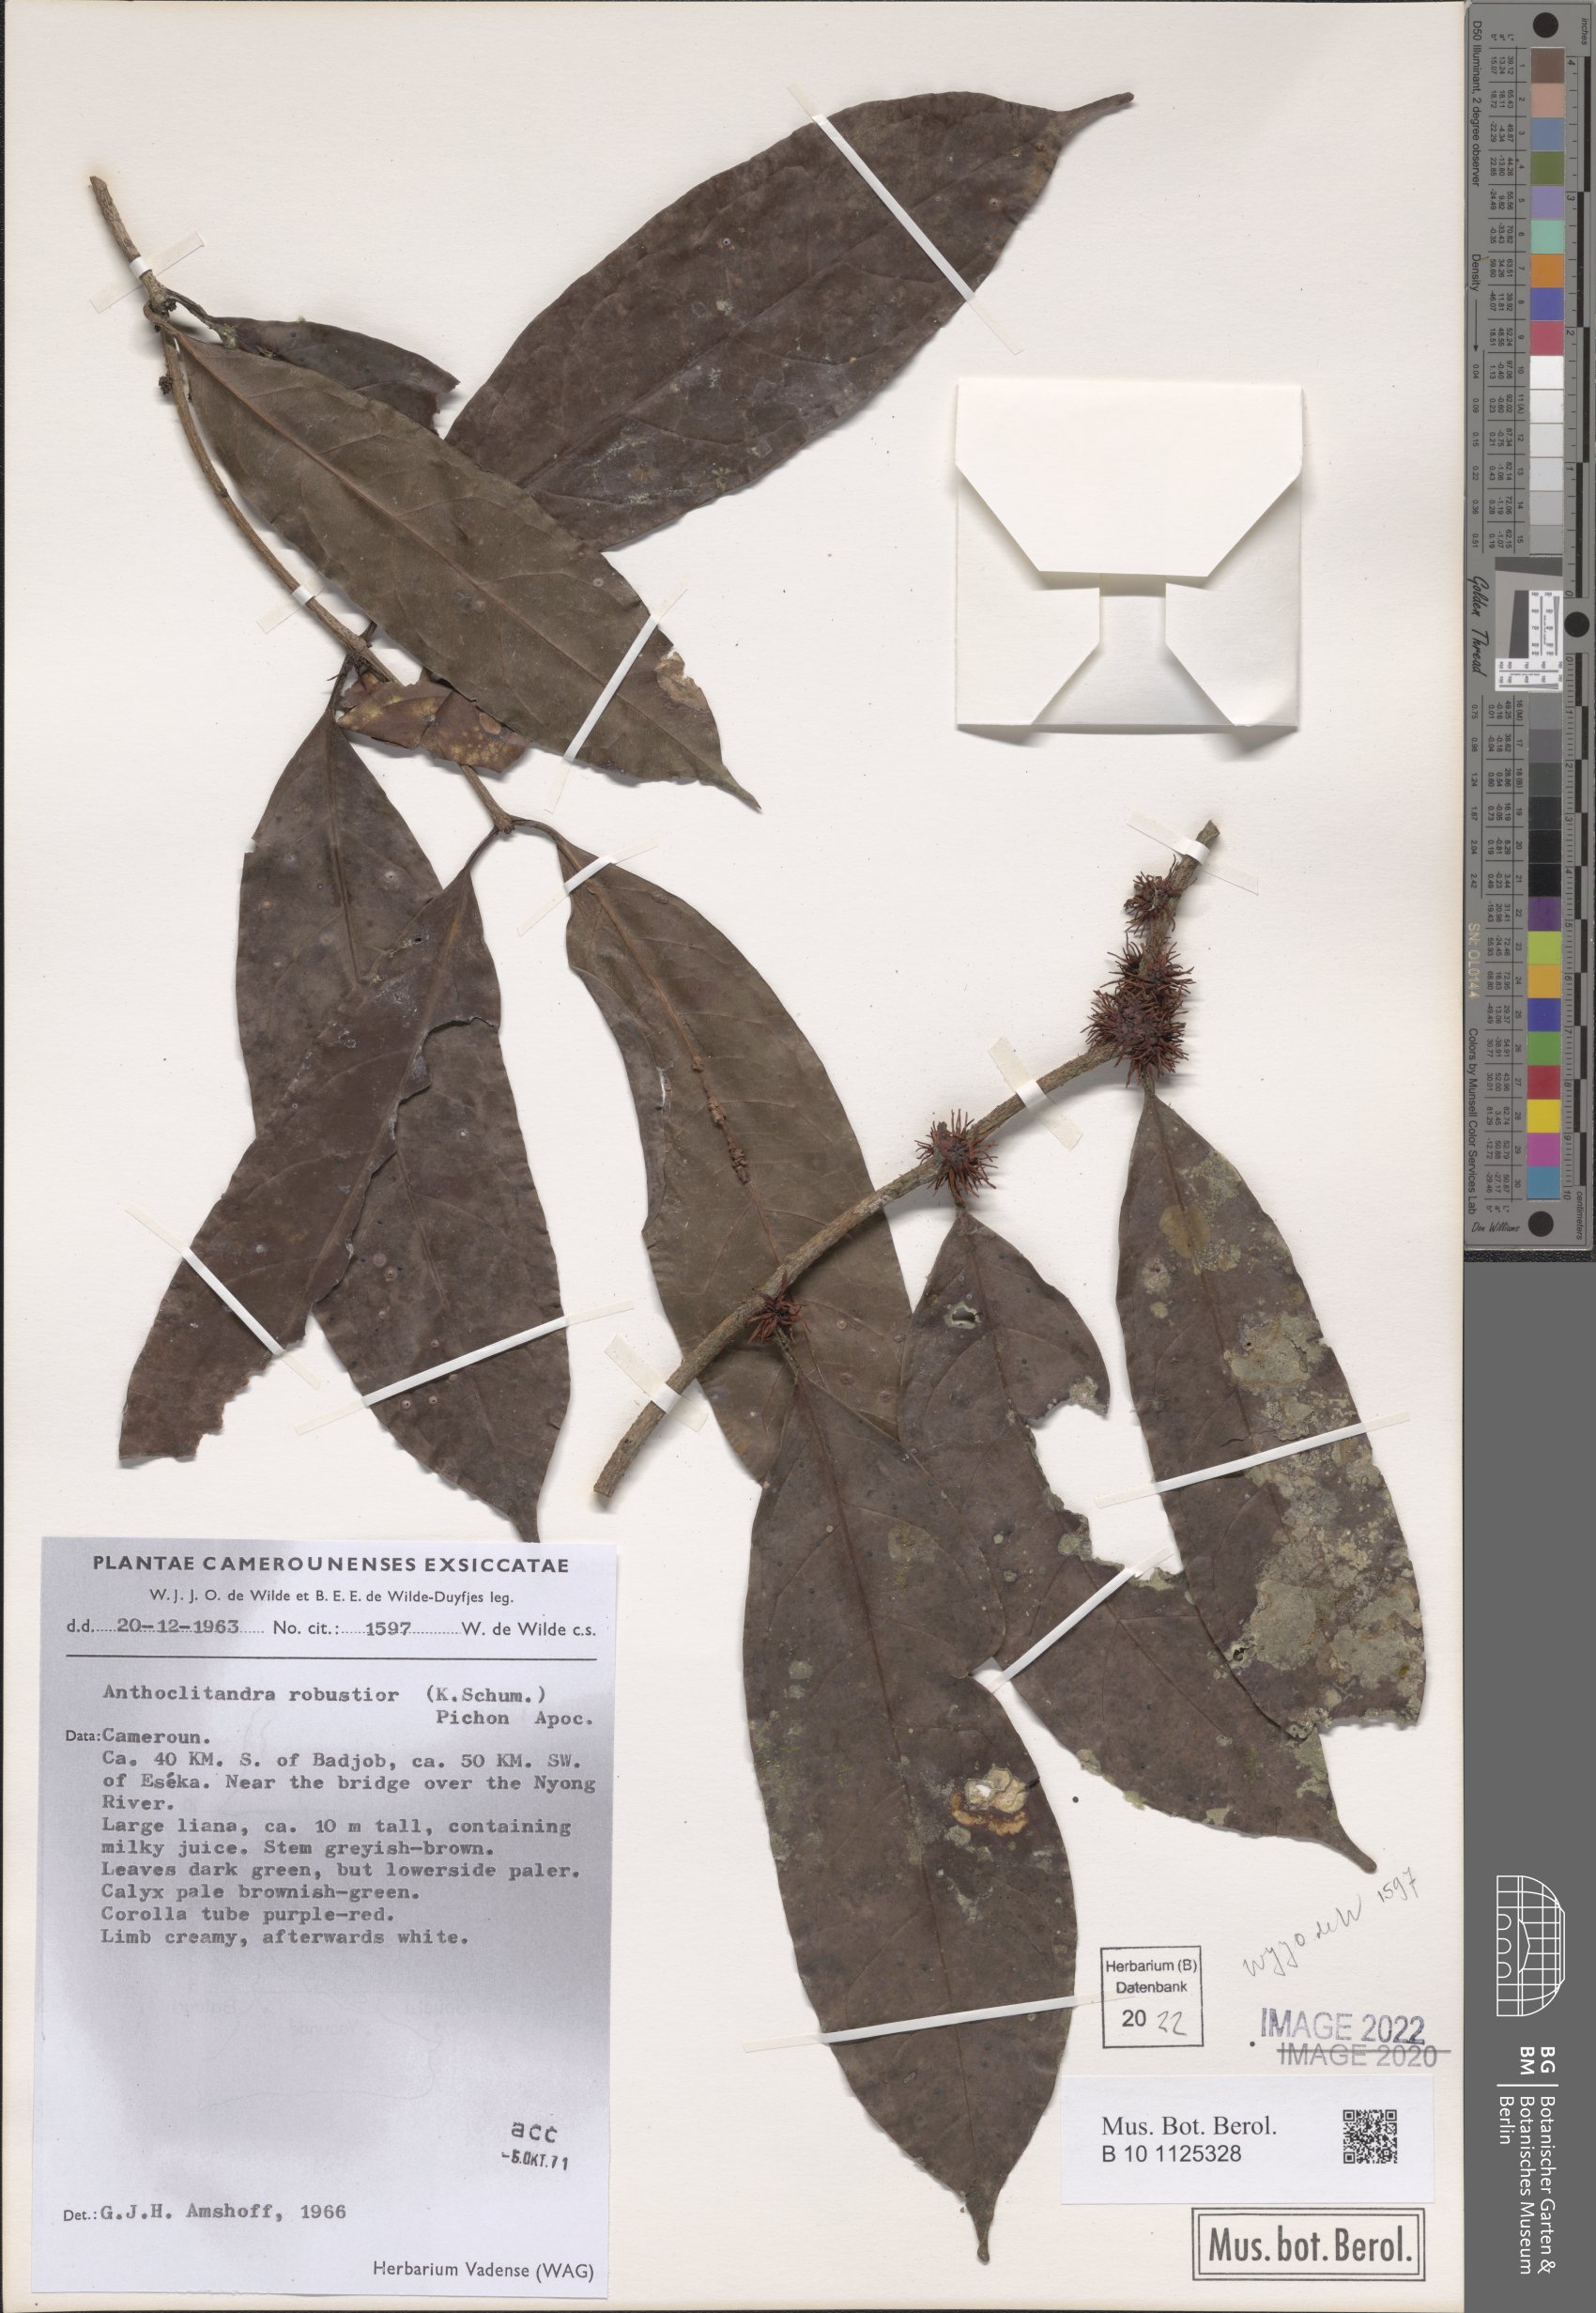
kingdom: Plantae
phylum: Tracheophyta
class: Magnoliopsida
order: Gentianales
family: Apocynaceae
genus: Landolphia
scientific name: Landolphia robustior
